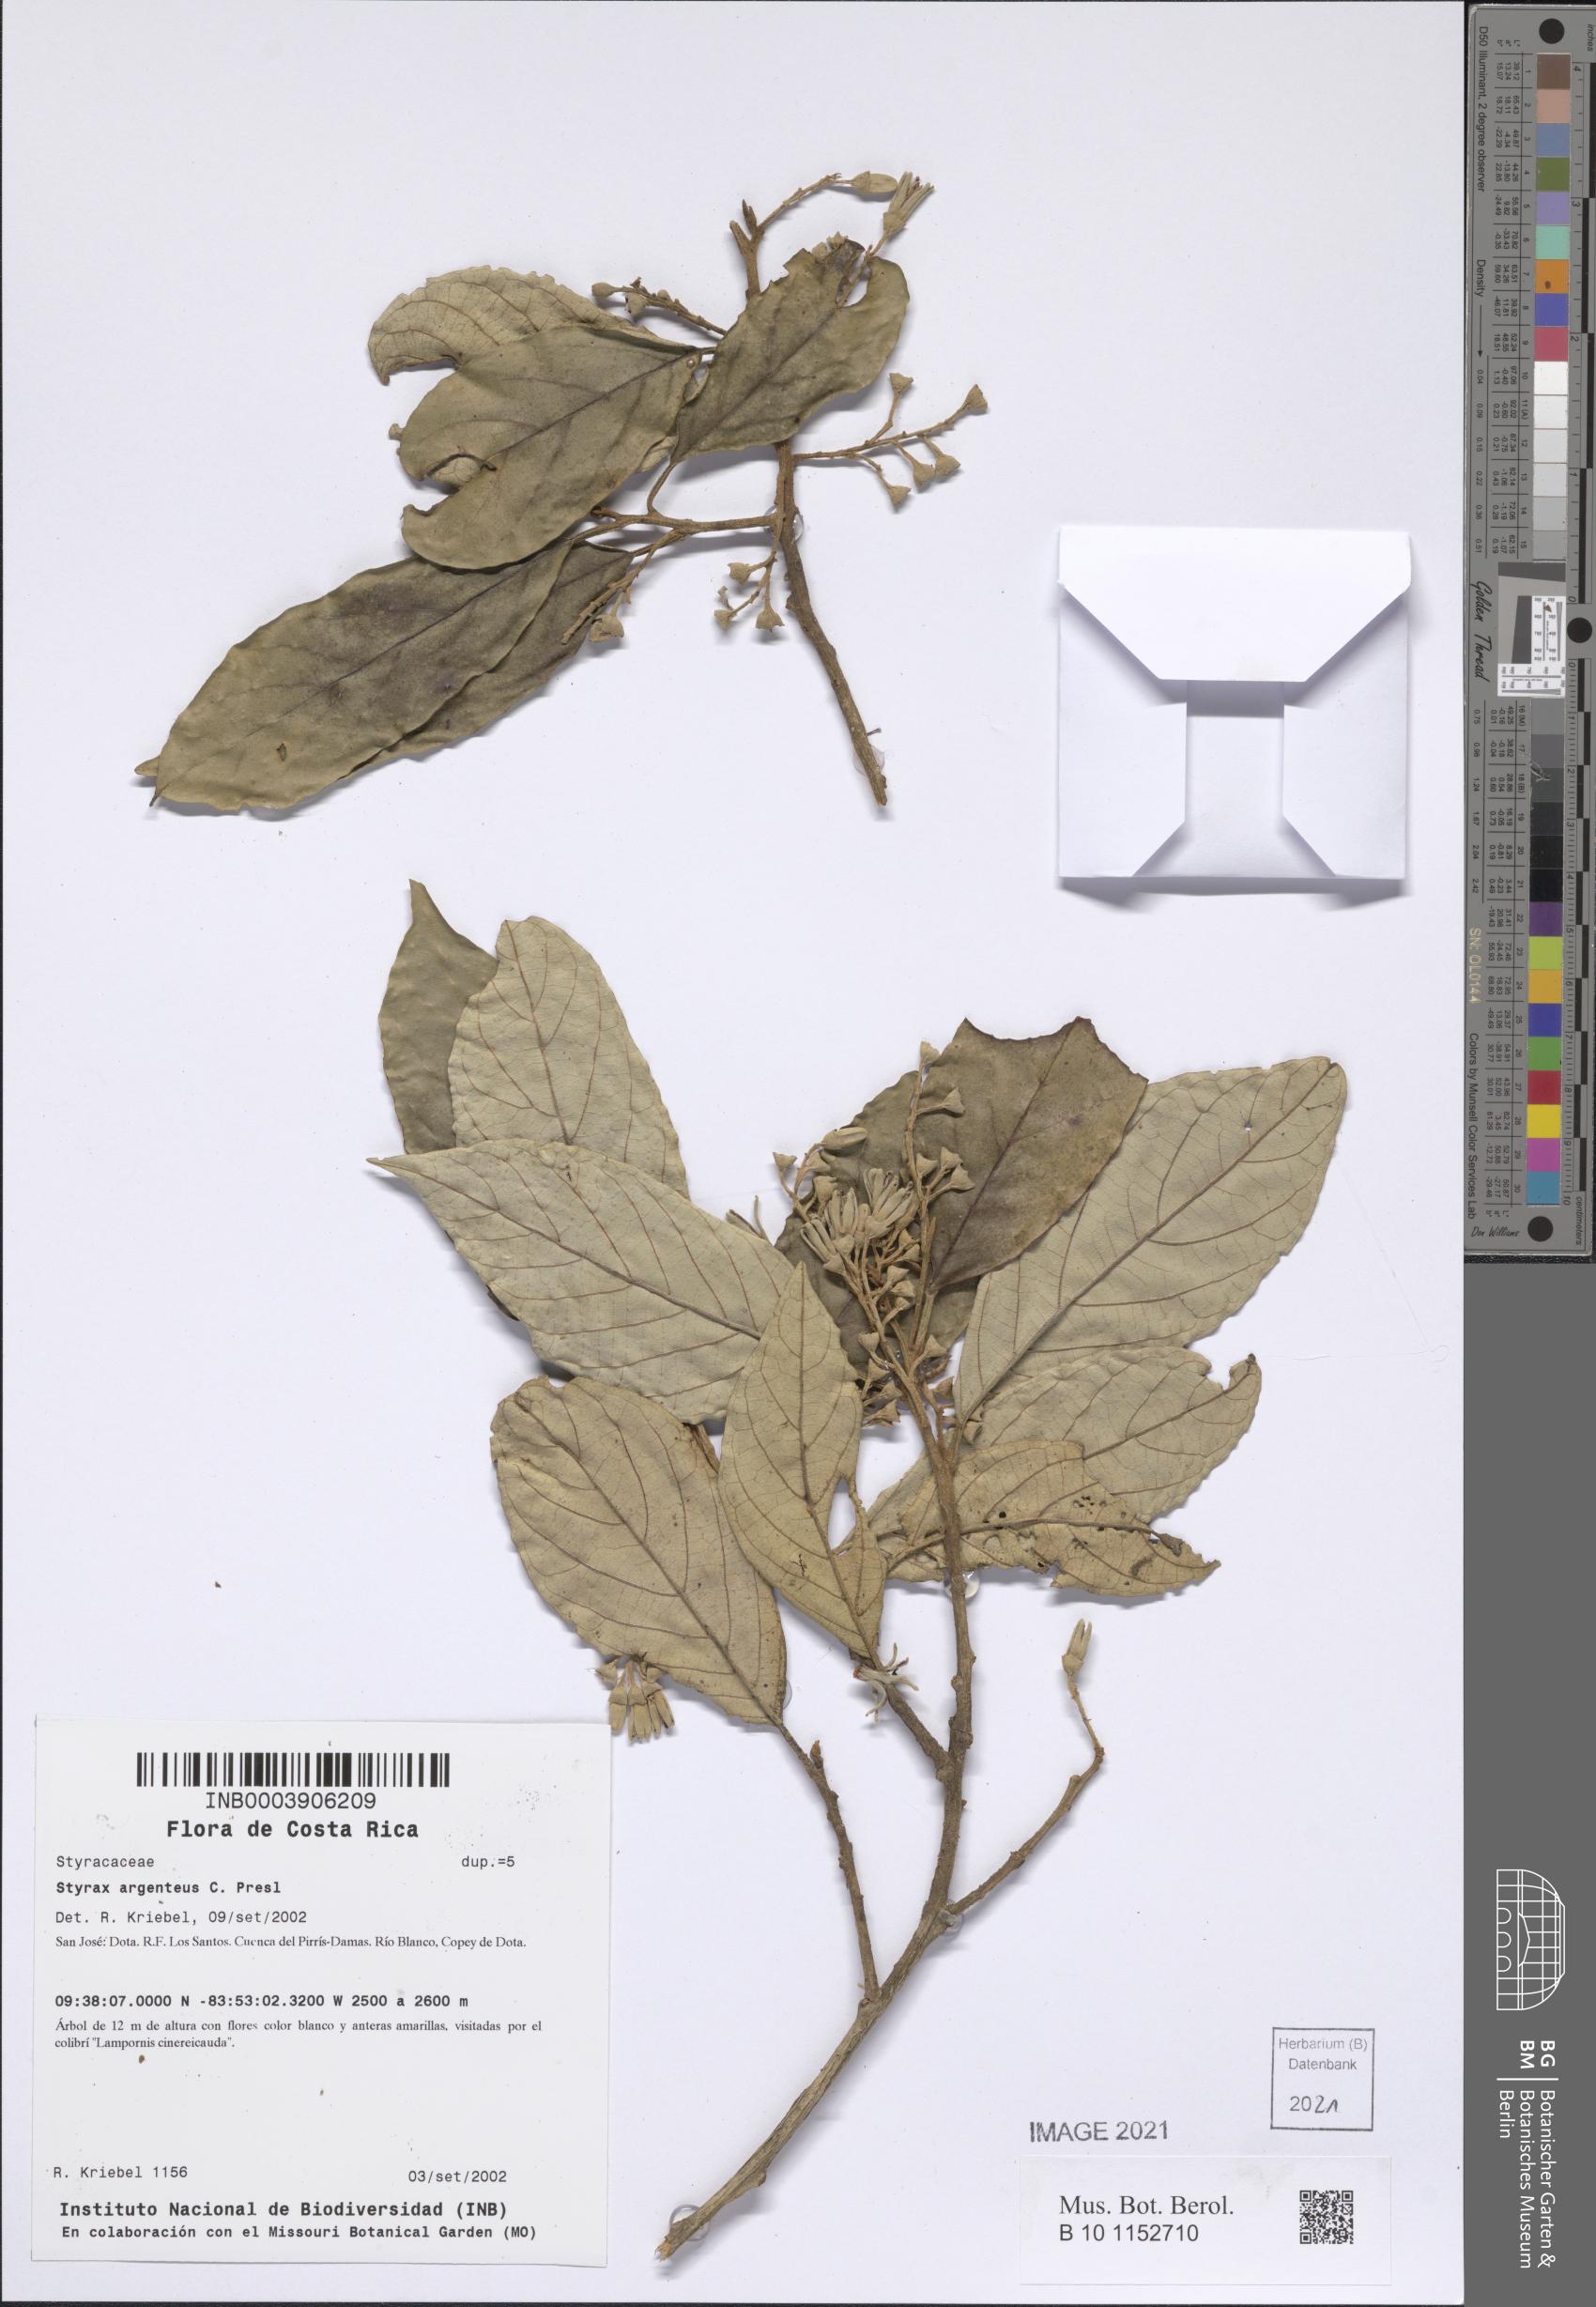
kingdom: Plantae
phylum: Tracheophyta
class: Magnoliopsida
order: Ericales
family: Styracaceae
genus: Styrax
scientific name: Styrax warscewiczii
